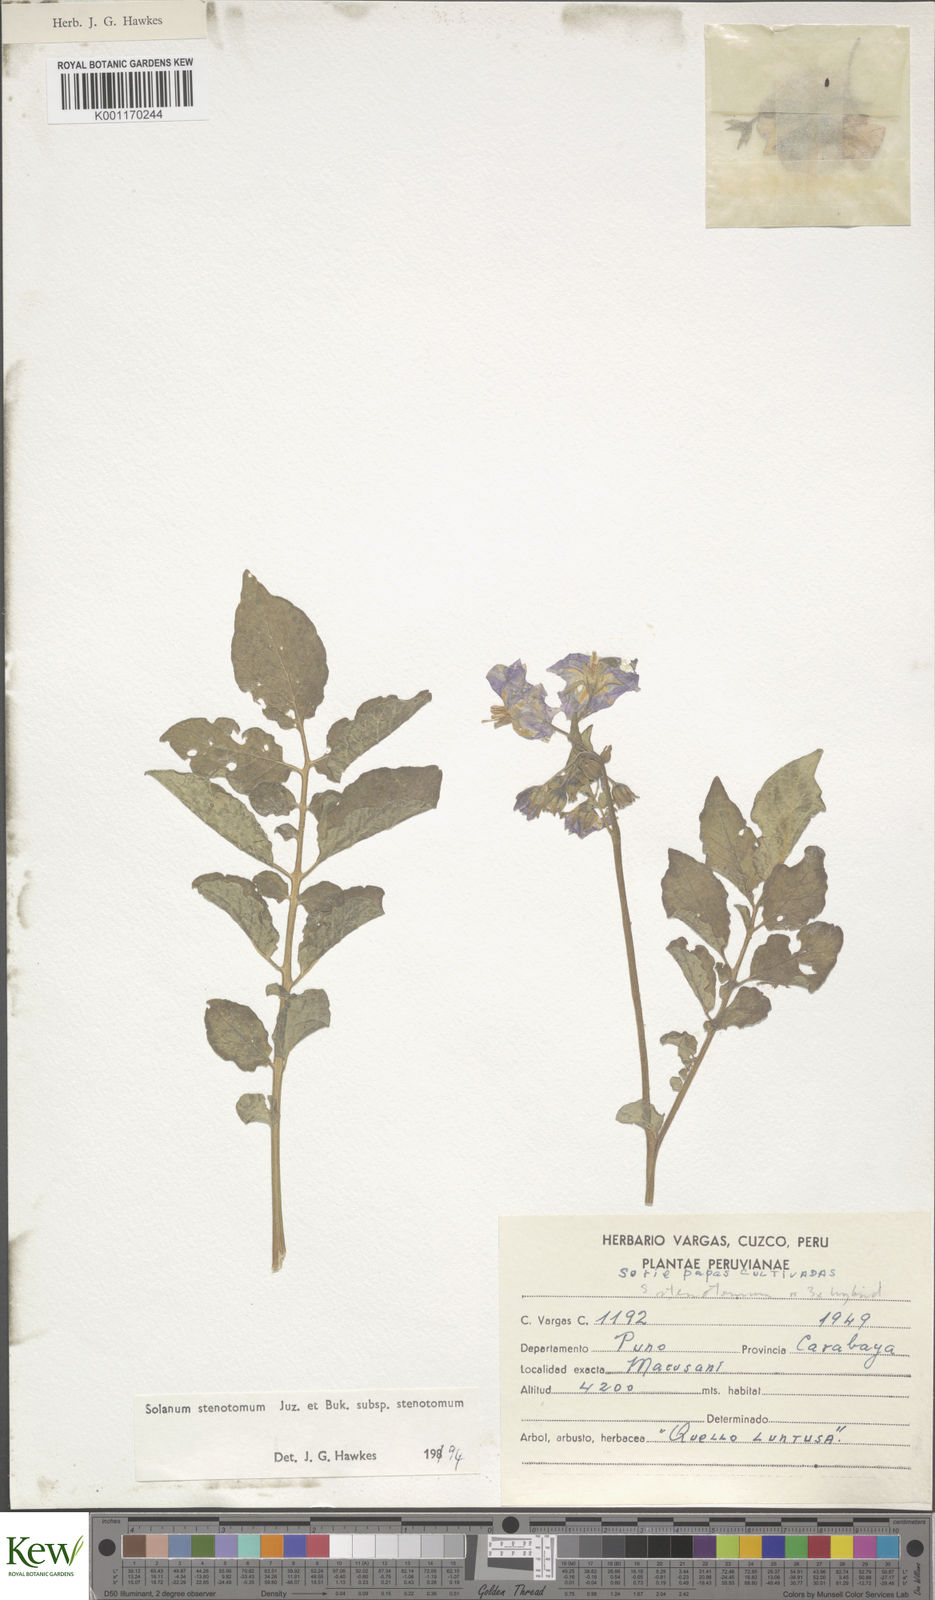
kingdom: Plantae
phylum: Tracheophyta
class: Magnoliopsida
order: Solanales
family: Solanaceae
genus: Solanum
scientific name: Solanum tuberosum
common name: Potato
